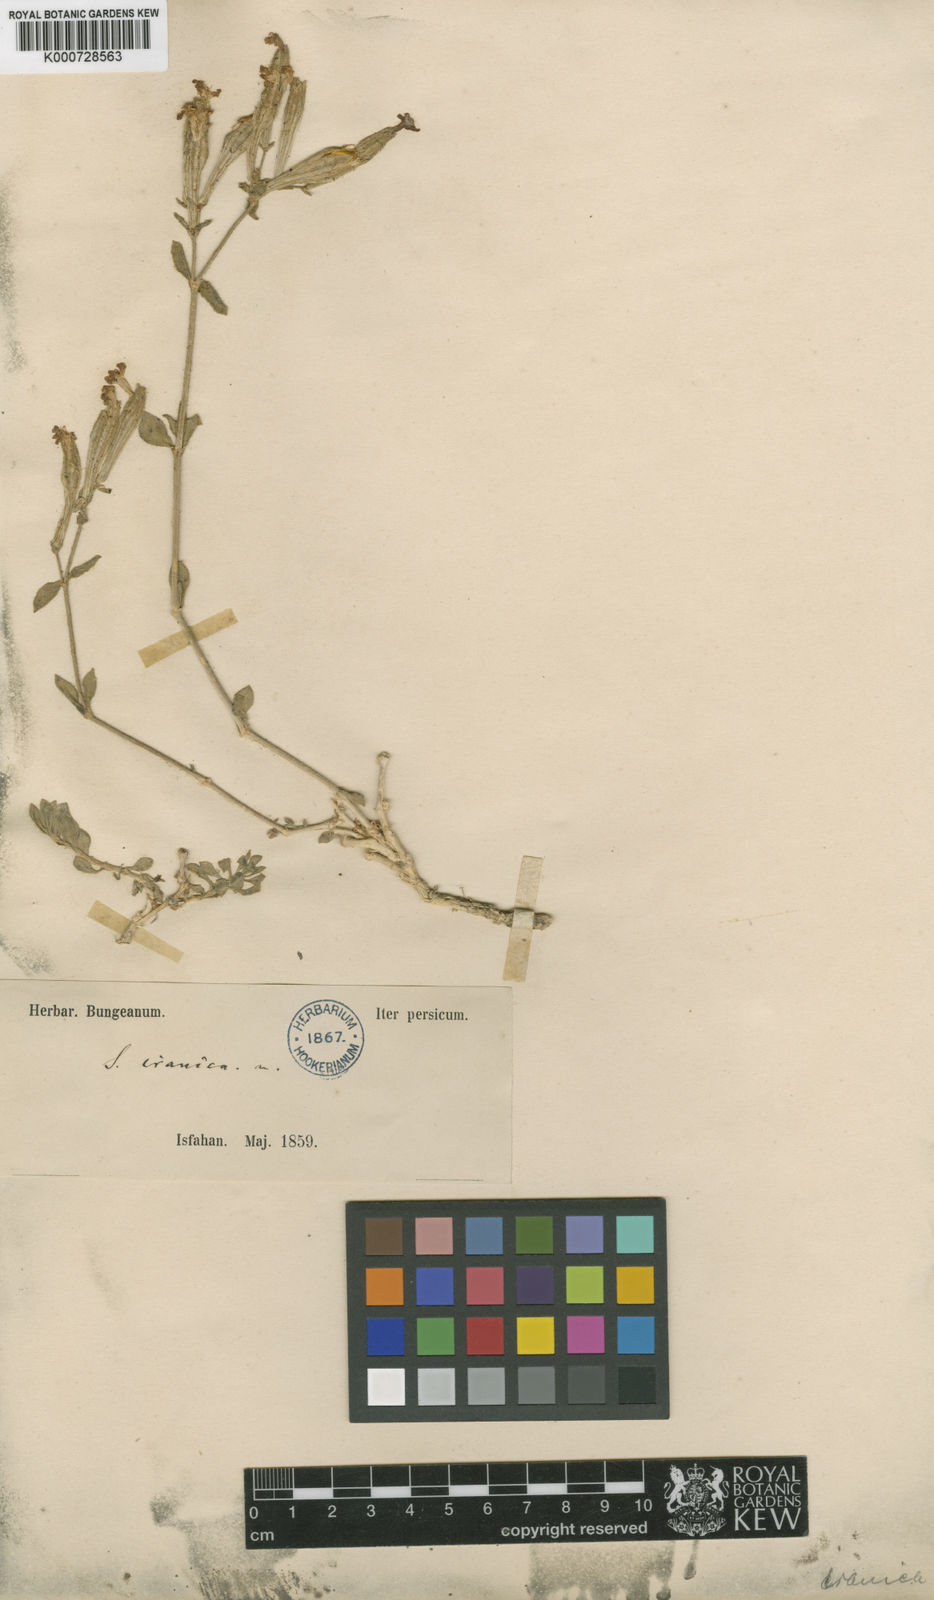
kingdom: Plantae
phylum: Tracheophyta
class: Magnoliopsida
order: Caryophyllales
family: Caryophyllaceae
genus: Silene
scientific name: Silene commelinifolia
